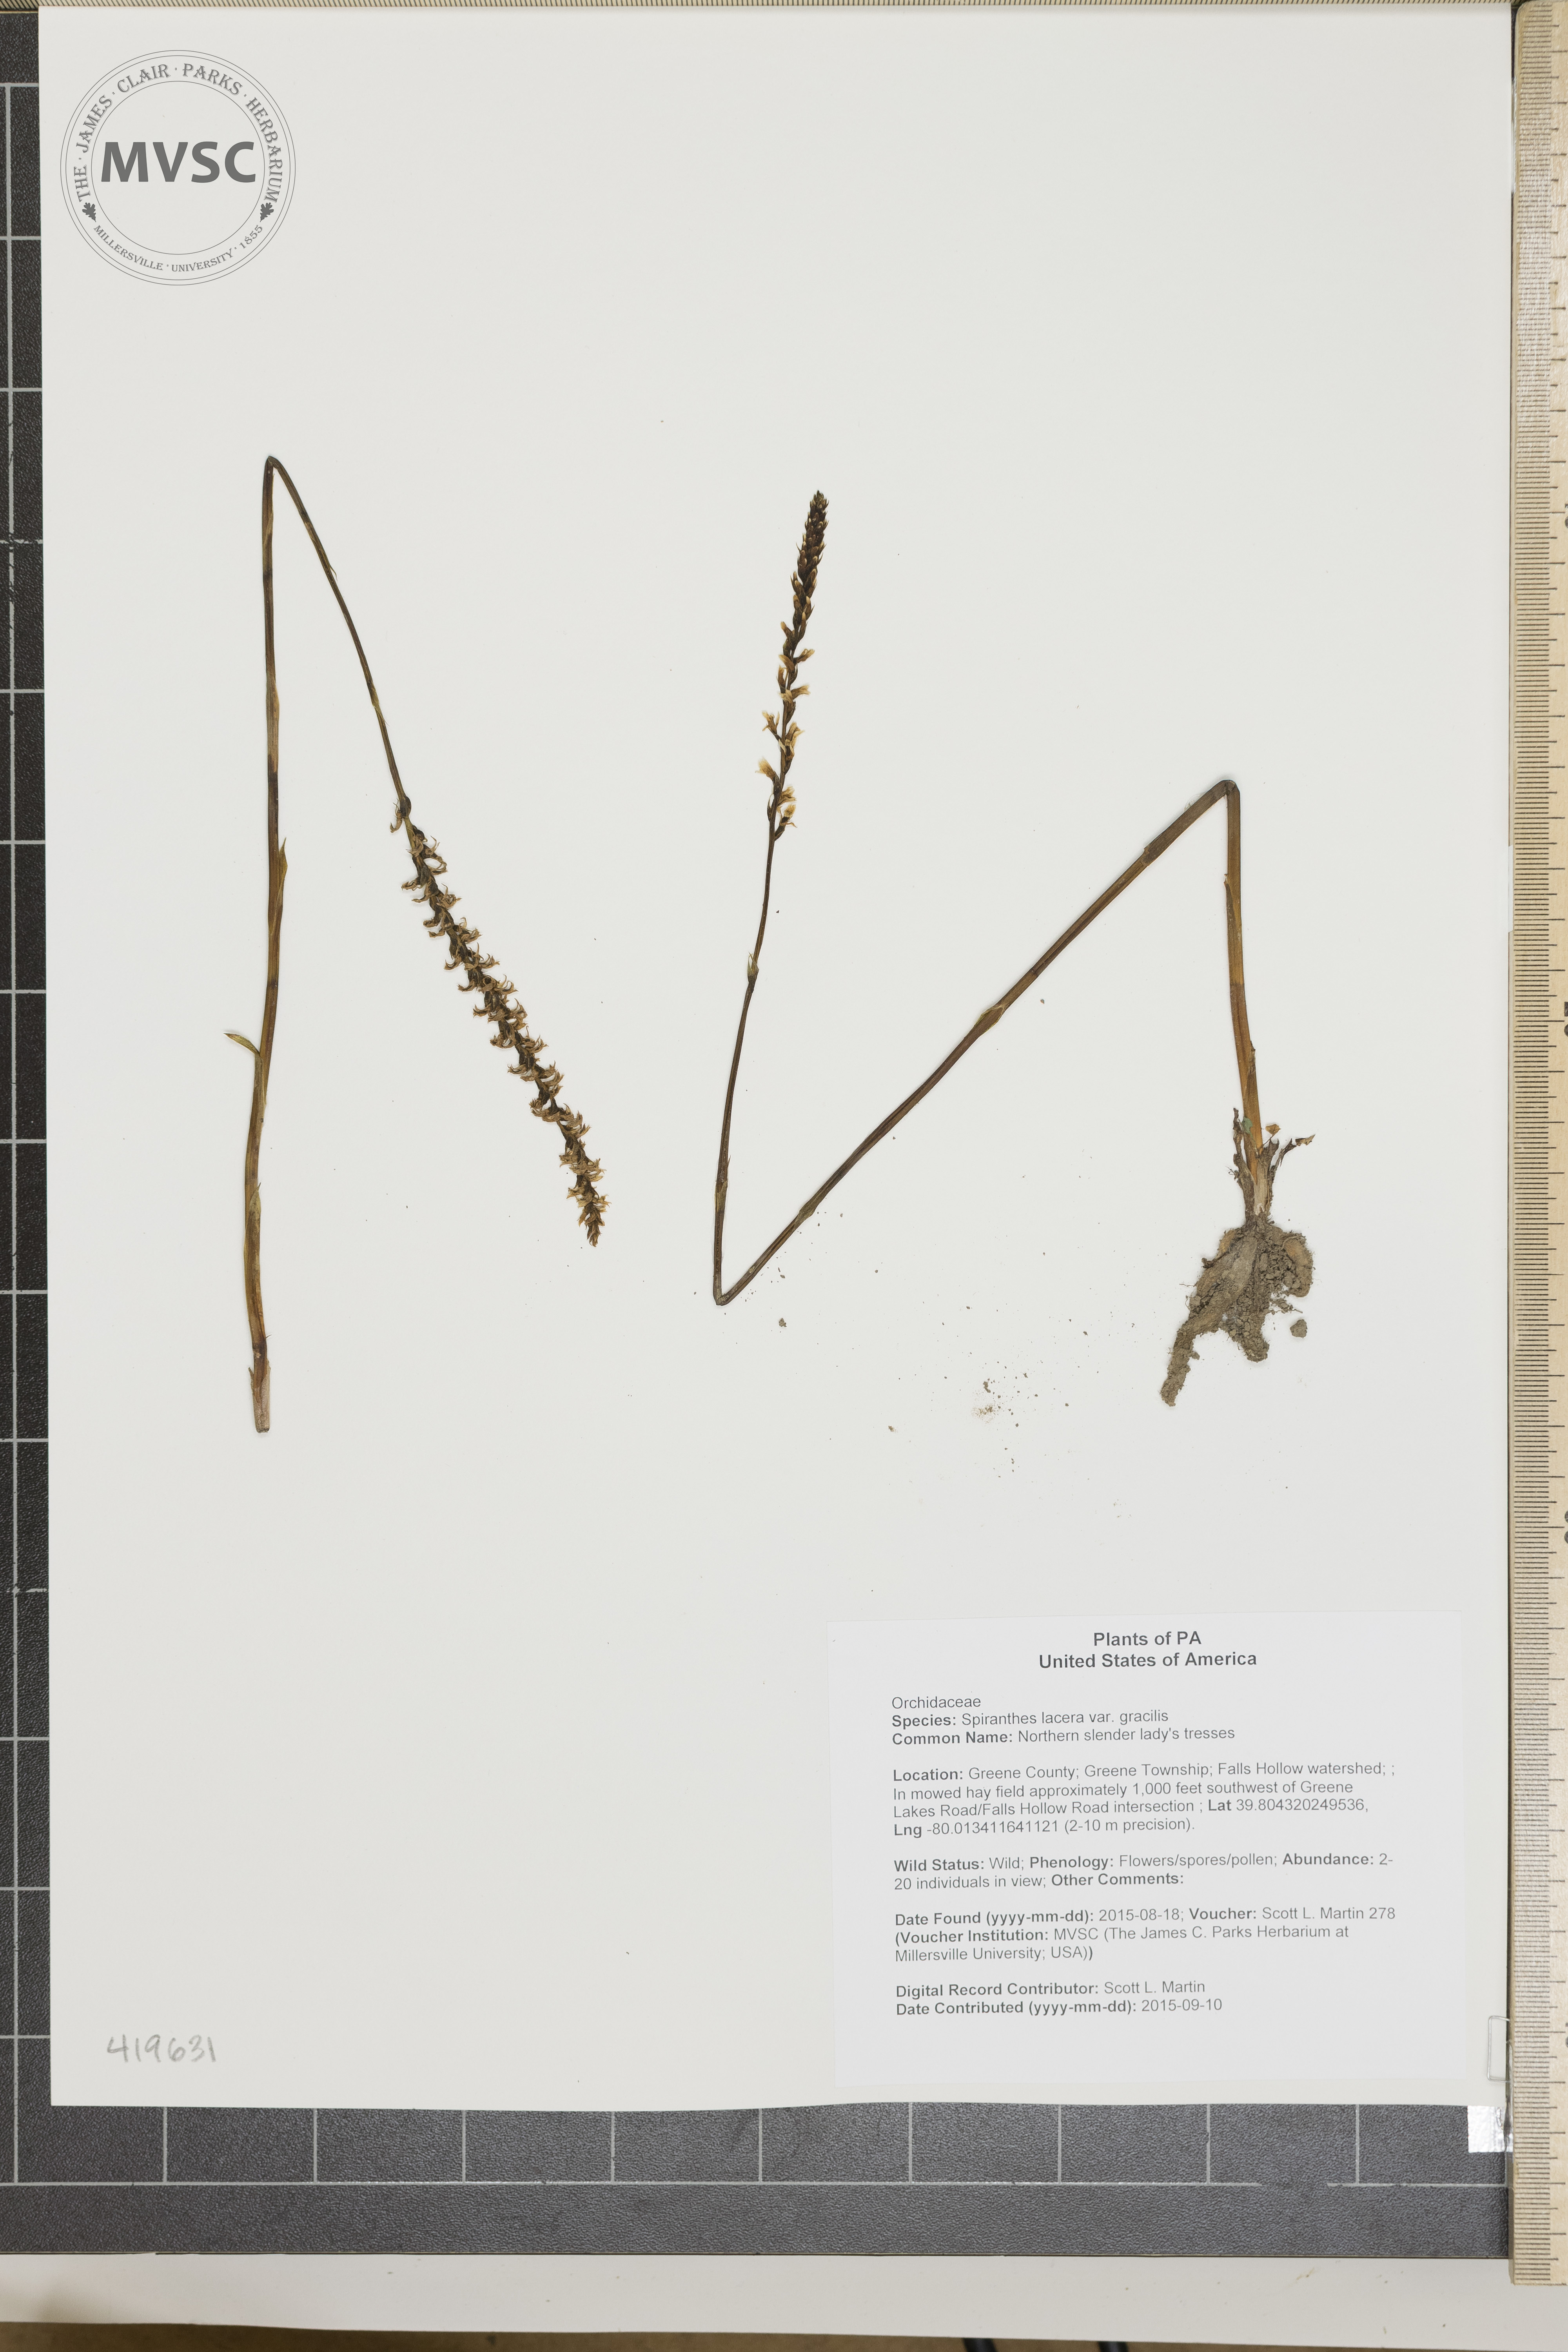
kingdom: Plantae
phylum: Tracheophyta
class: Liliopsida
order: Asparagales
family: Orchidaceae
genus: Spiranthes
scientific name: Spiranthes lacera
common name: Northern slender lady's tresses
